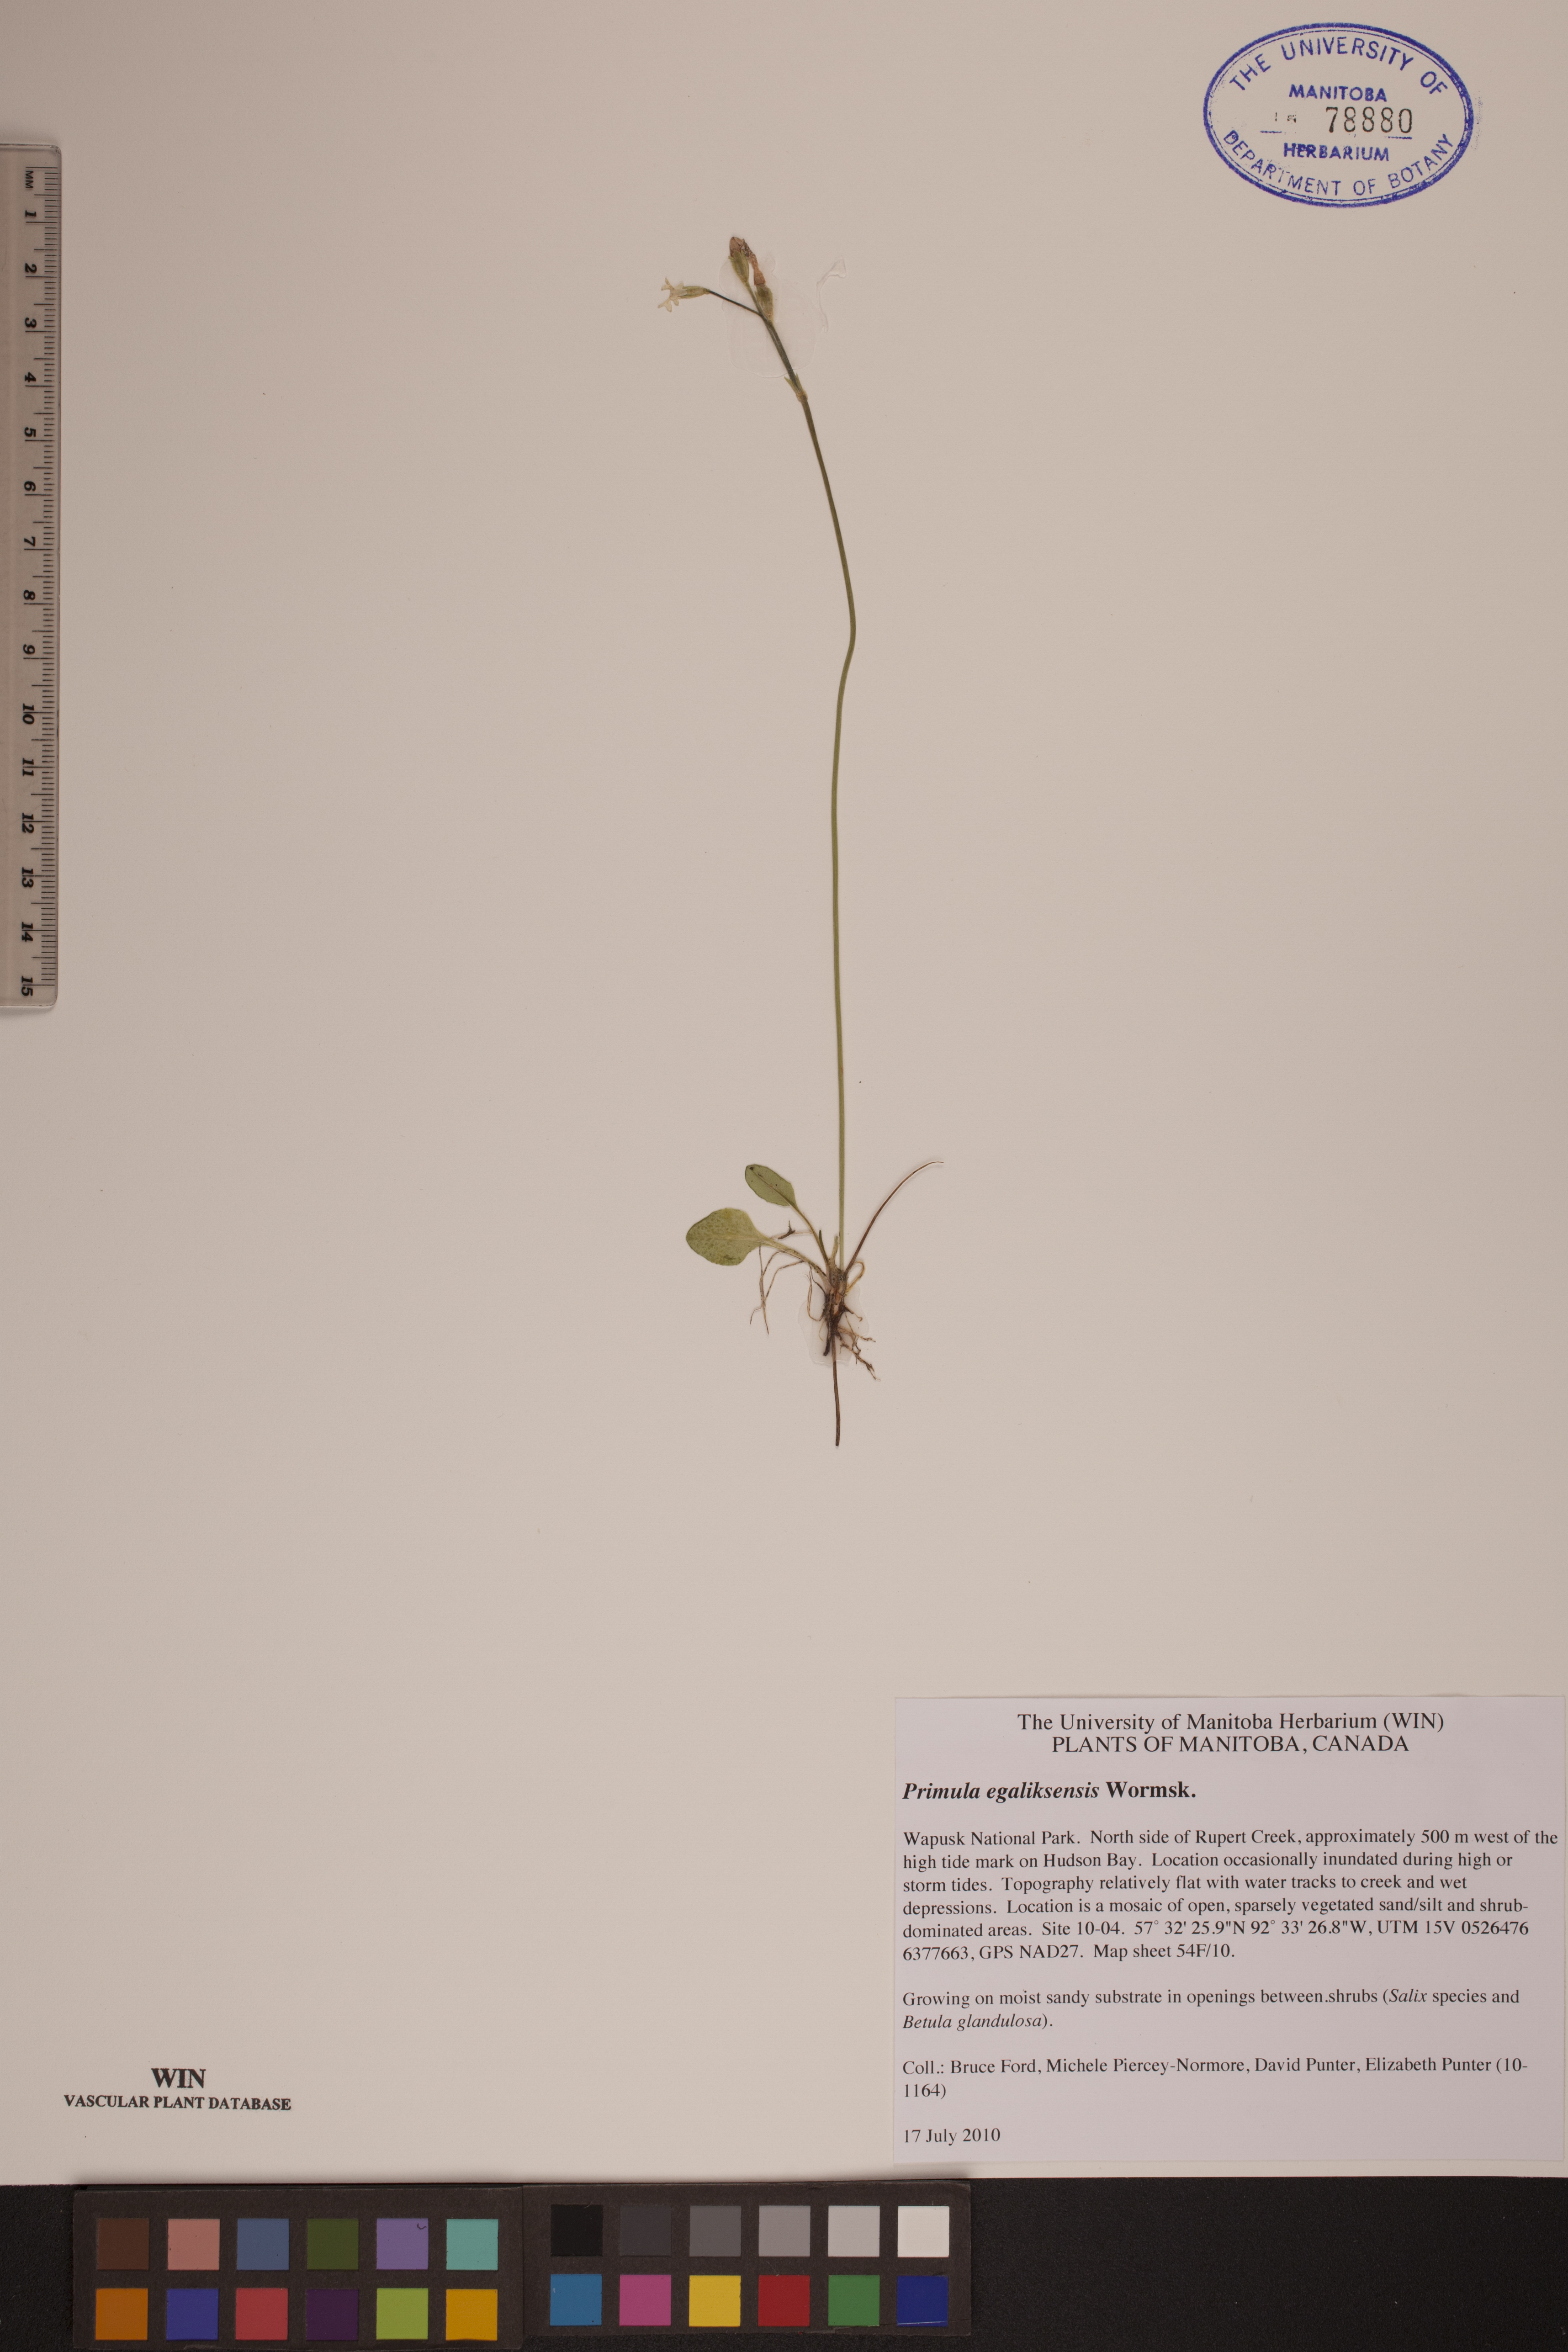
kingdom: Plantae
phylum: Tracheophyta
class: Magnoliopsida
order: Ericales
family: Primulaceae
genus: Primula
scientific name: Primula egaliksensis
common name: Greenland primrose
